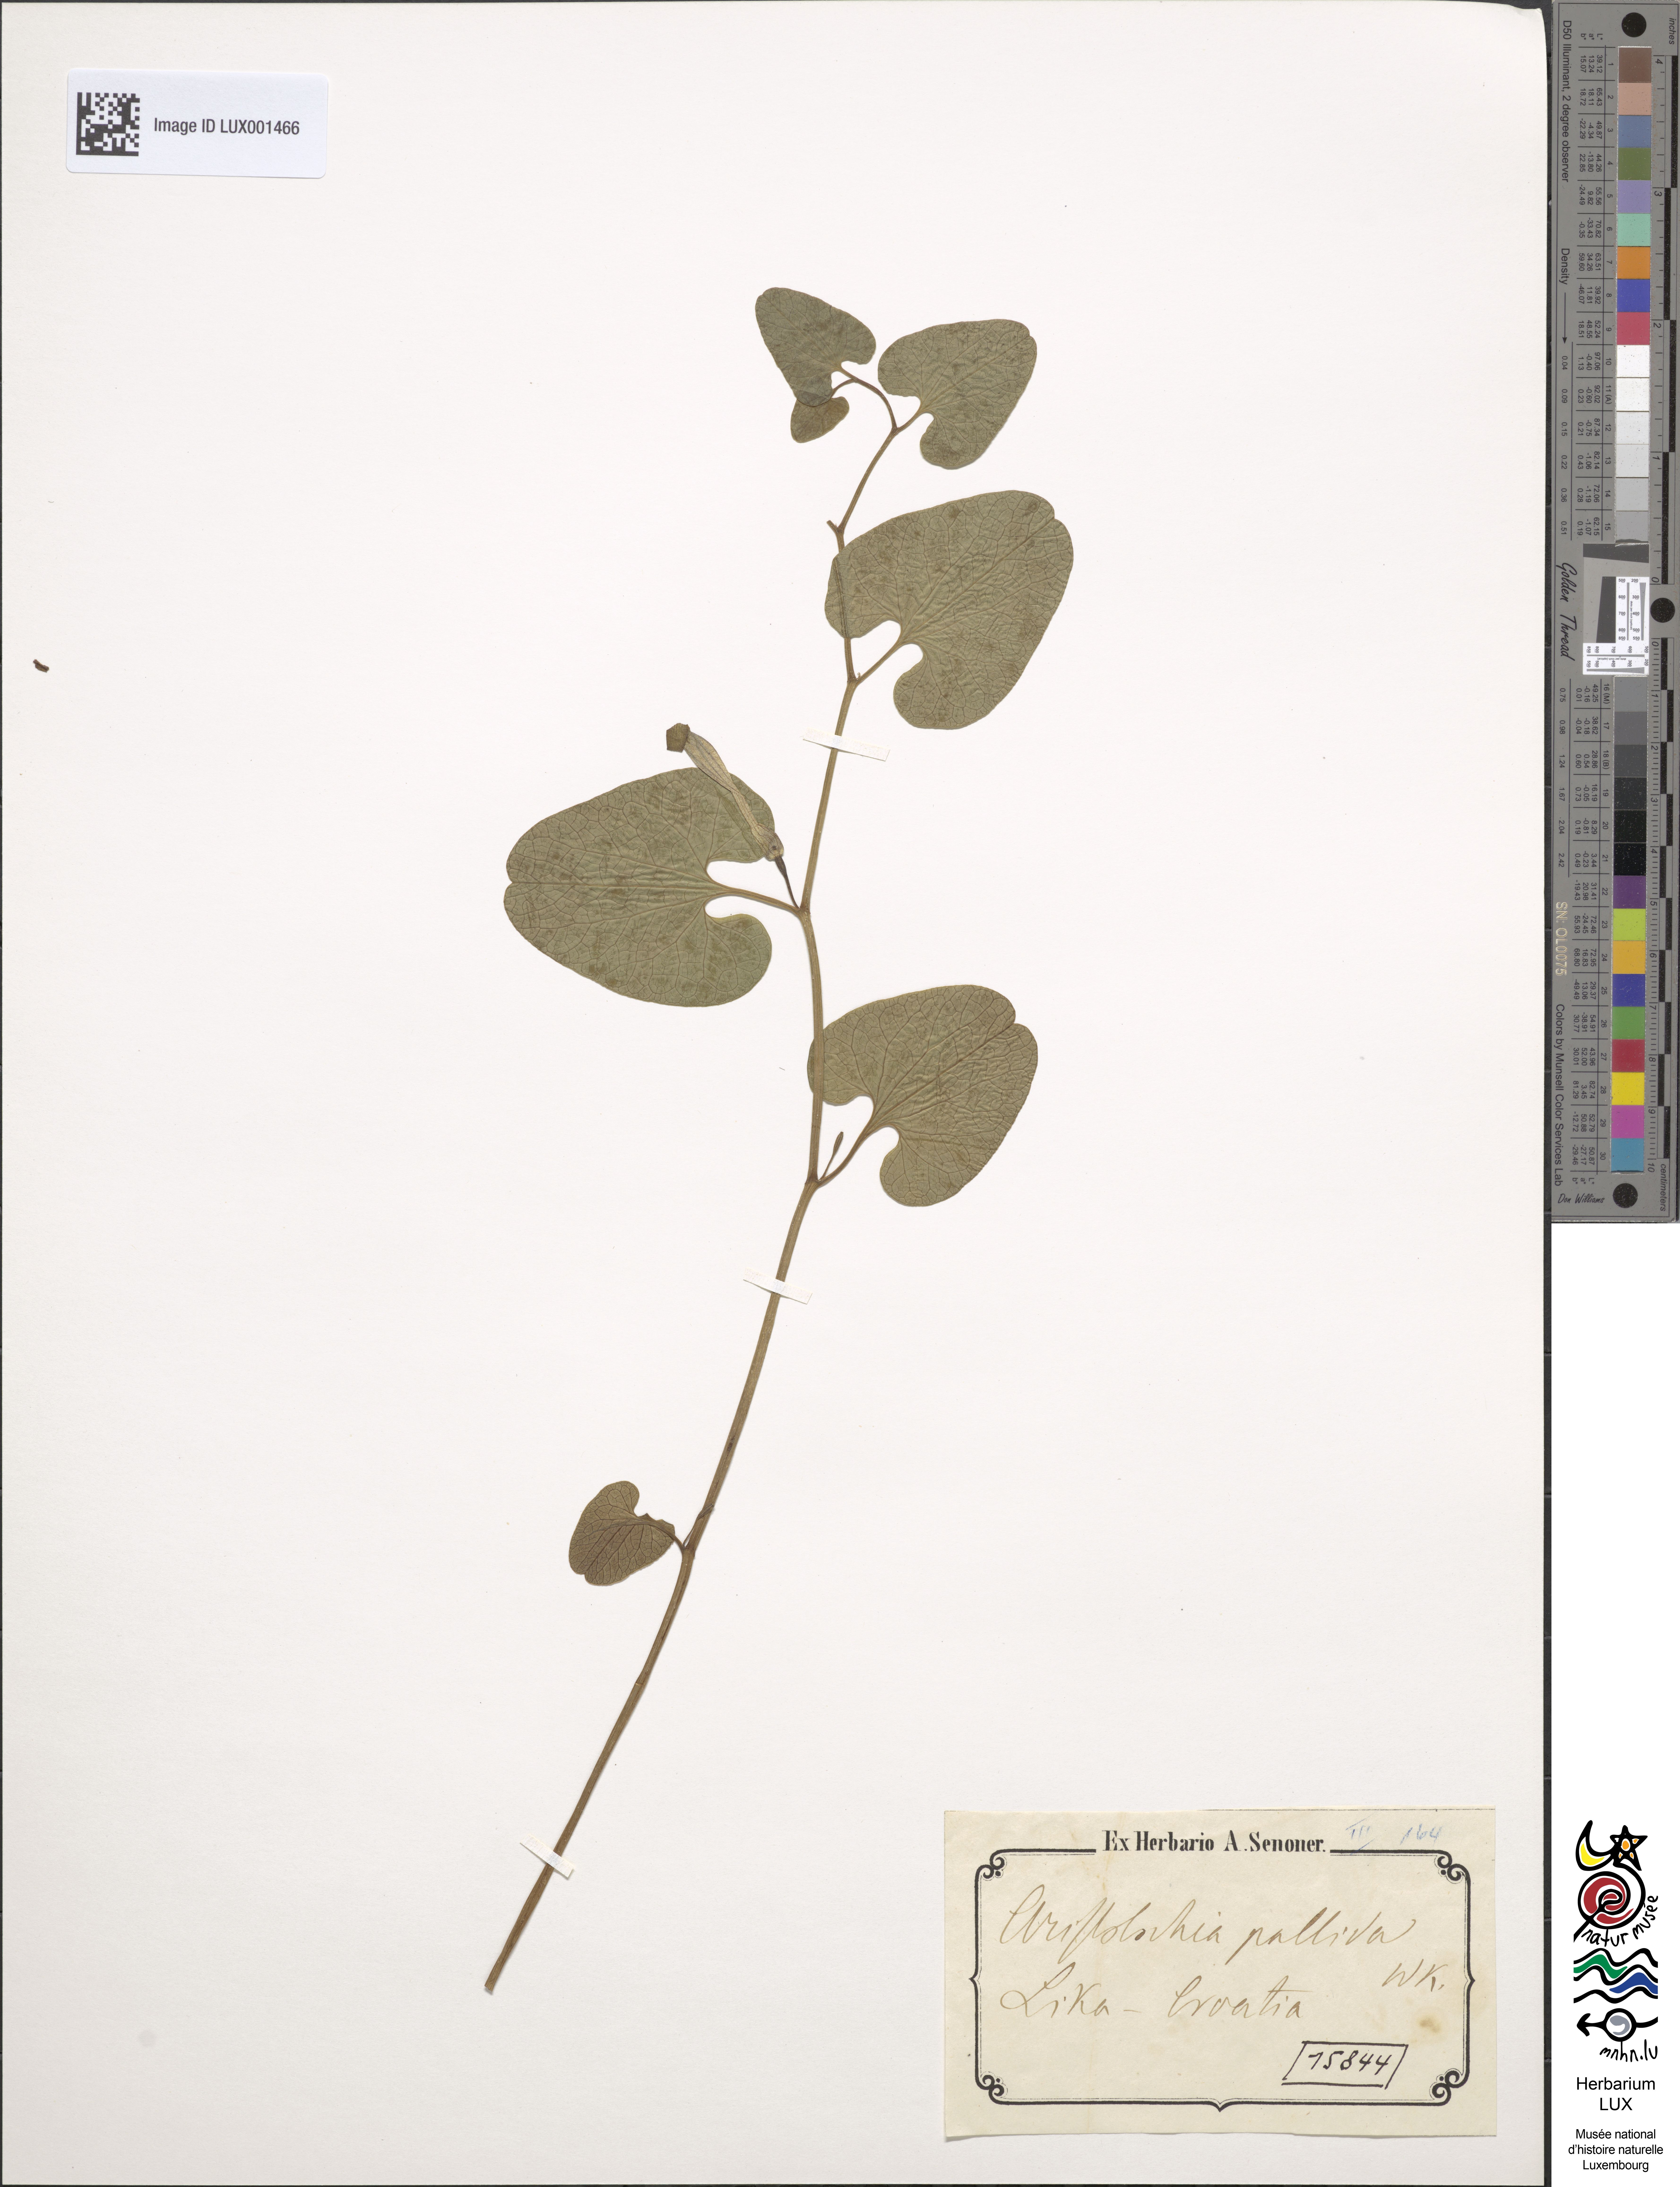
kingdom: Plantae
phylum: Tracheophyta
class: Magnoliopsida
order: Piperales
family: Aristolochiaceae
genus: Aristolochia
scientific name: Aristolochia pallida
